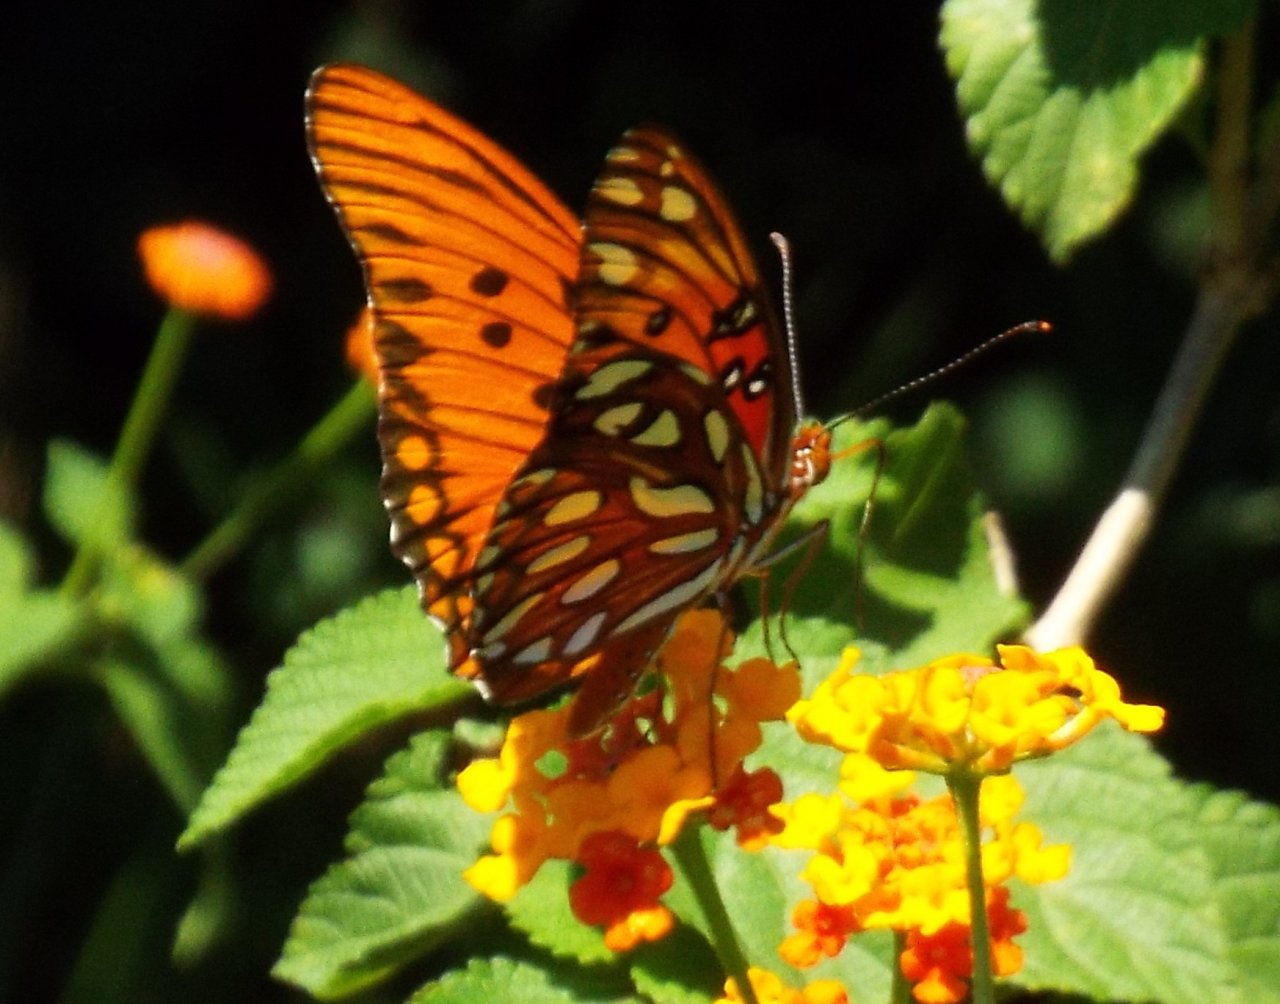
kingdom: Animalia
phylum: Arthropoda
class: Insecta
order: Lepidoptera
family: Nymphalidae
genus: Dione
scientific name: Dione vanillae
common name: Gulf Fritillary
